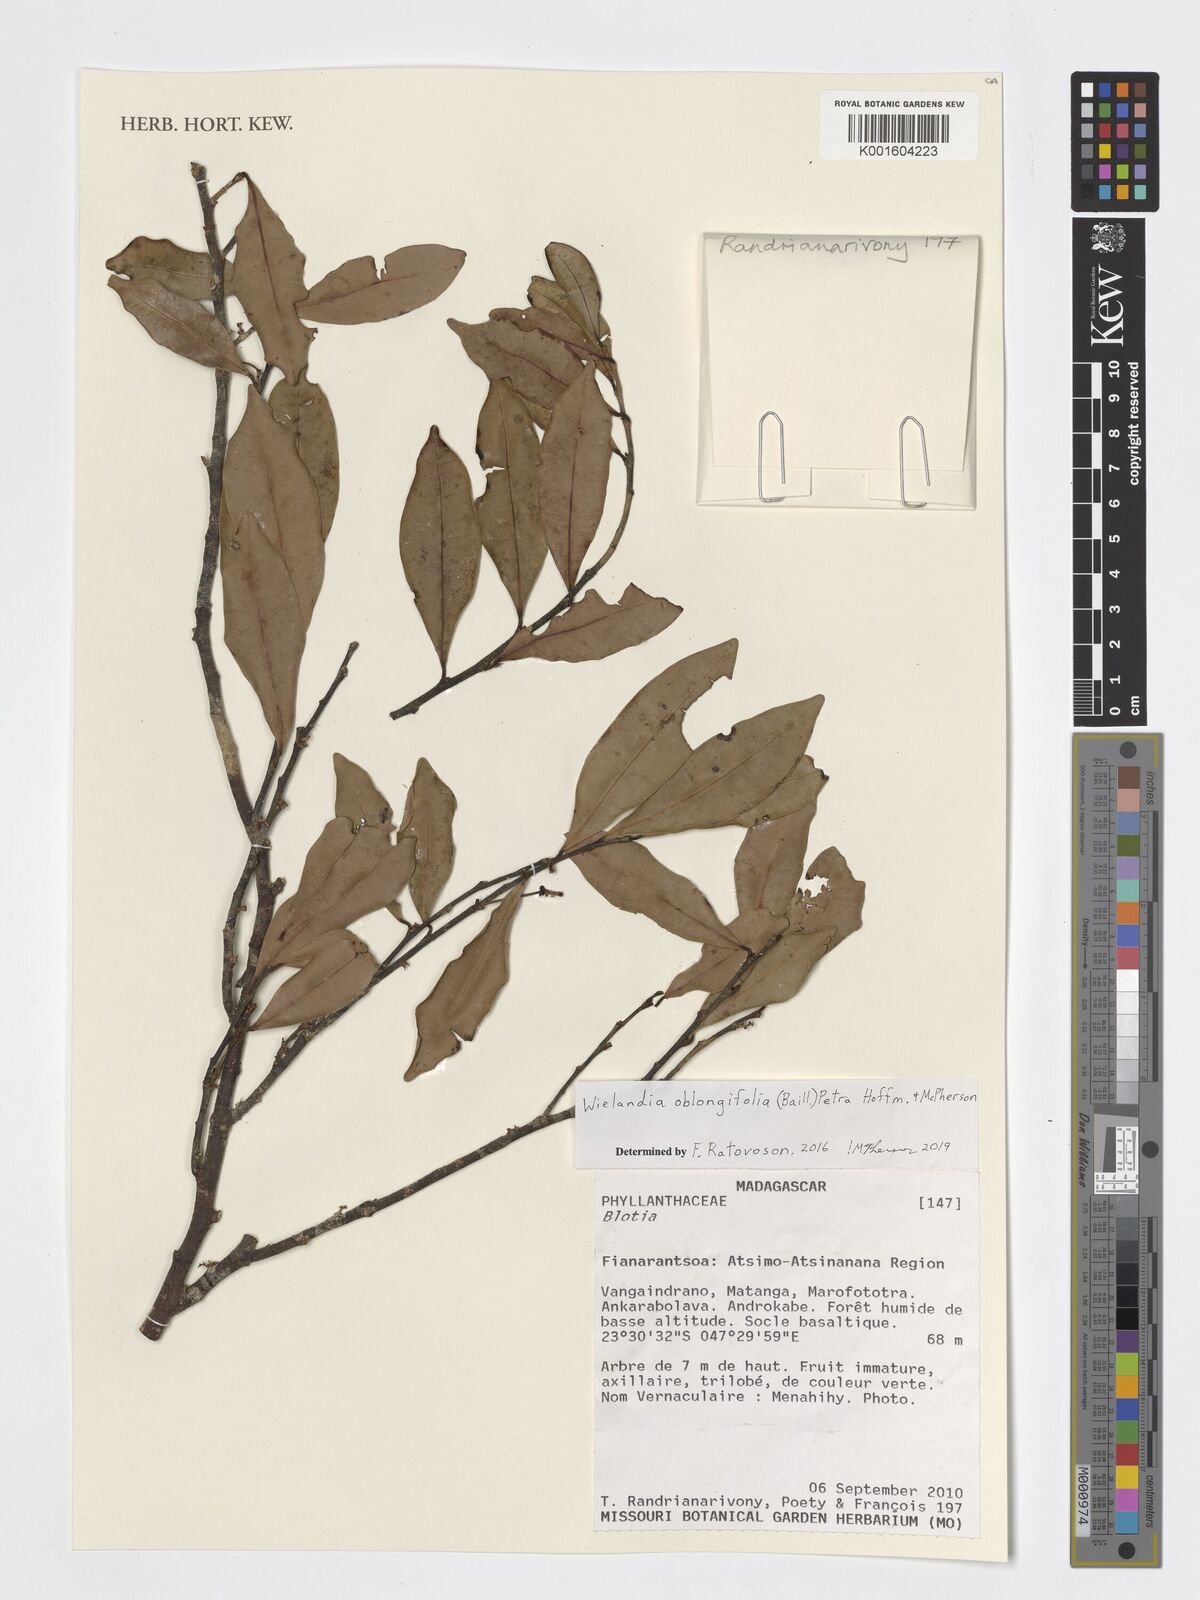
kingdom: Plantae
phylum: Tracheophyta
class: Magnoliopsida
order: Malpighiales
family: Phyllanthaceae
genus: Wielandia
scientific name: Wielandia oblongifolia
